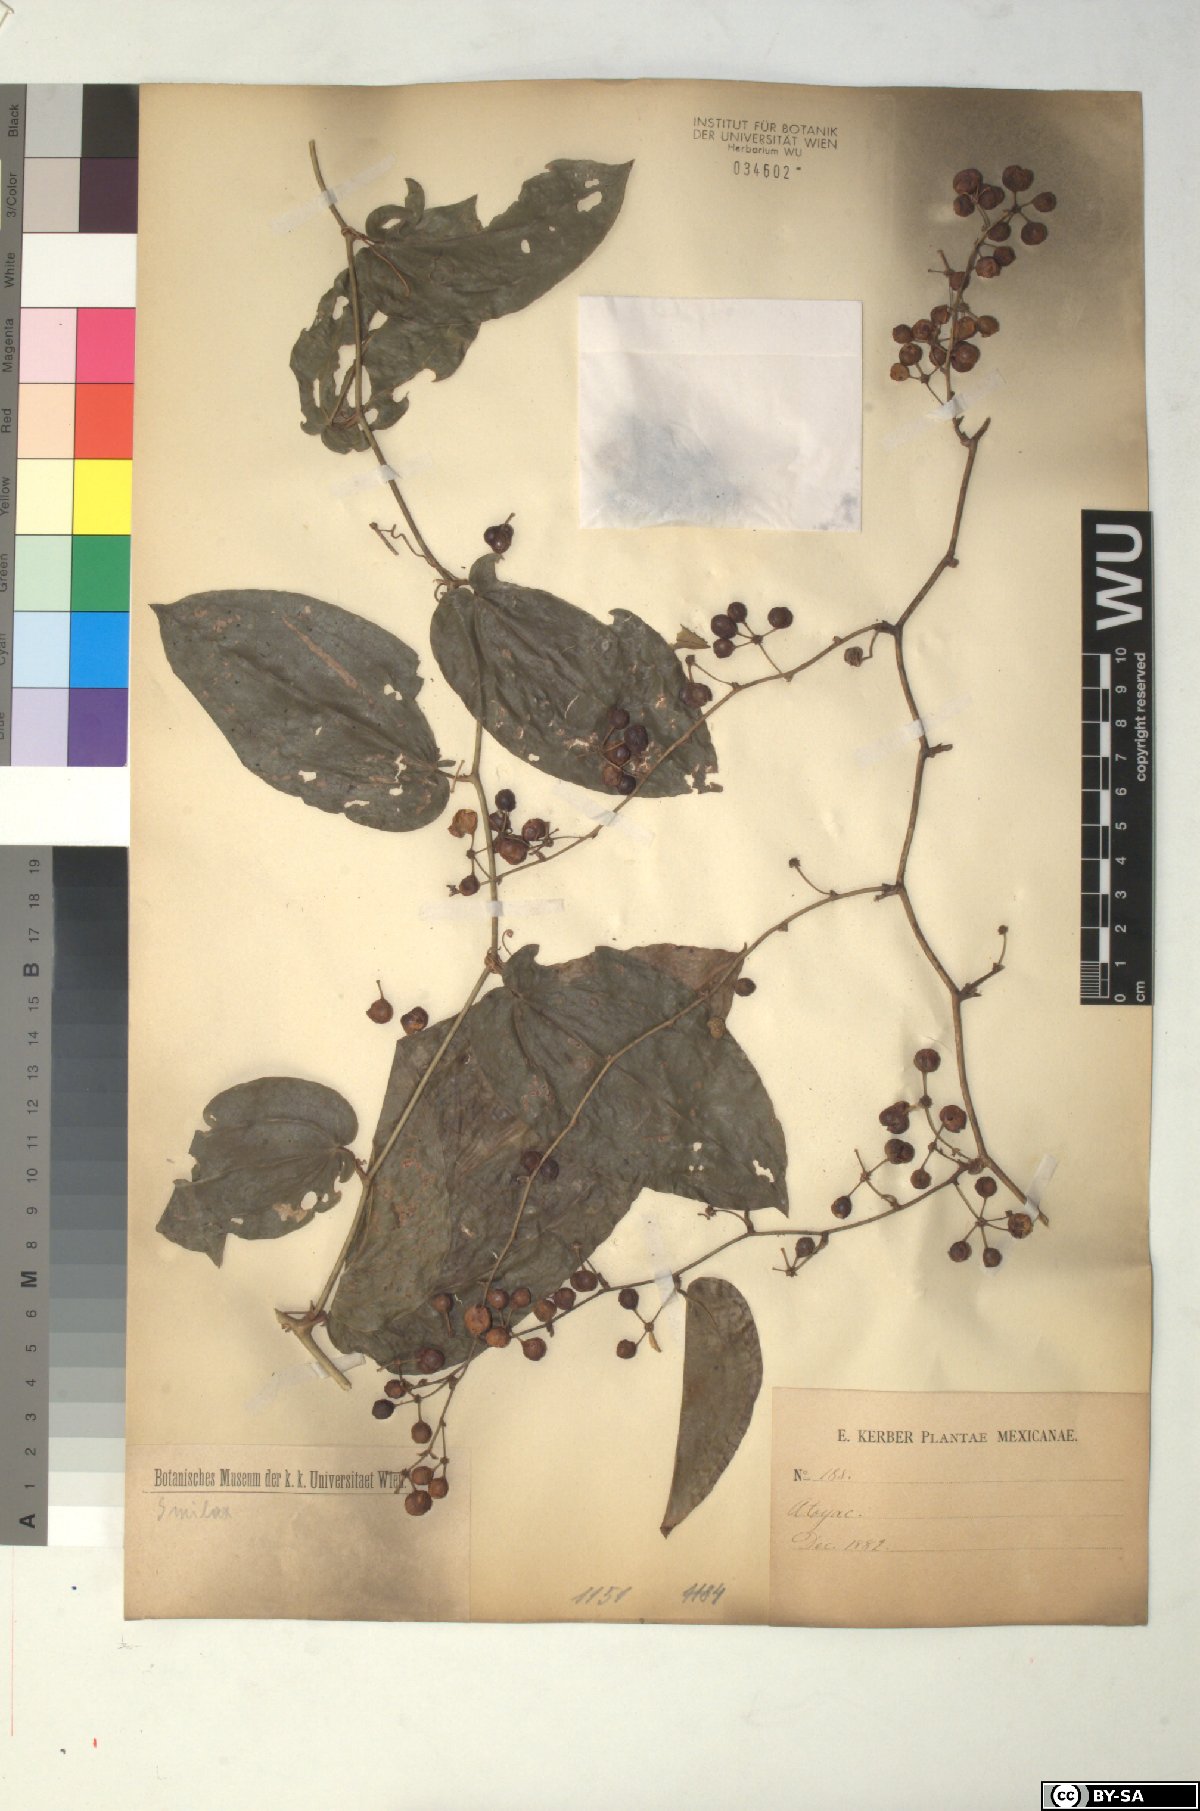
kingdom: Plantae
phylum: Tracheophyta
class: Liliopsida
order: Liliales
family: Smilacaceae
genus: Smilax
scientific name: Smilax
